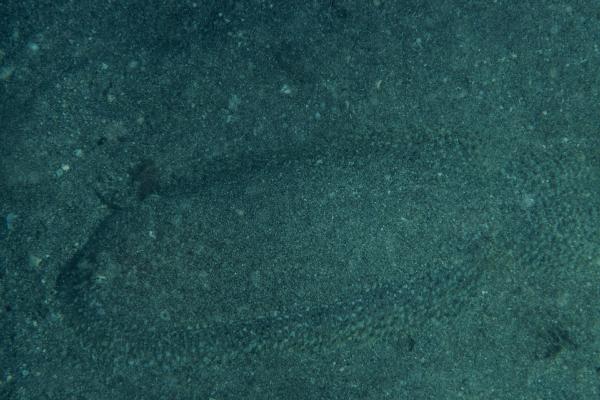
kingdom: Animalia
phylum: Chordata
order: Pleuronectiformes
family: Soleidae
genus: Aseraggodes
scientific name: Aseraggodes borehami
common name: Boreham's sole
